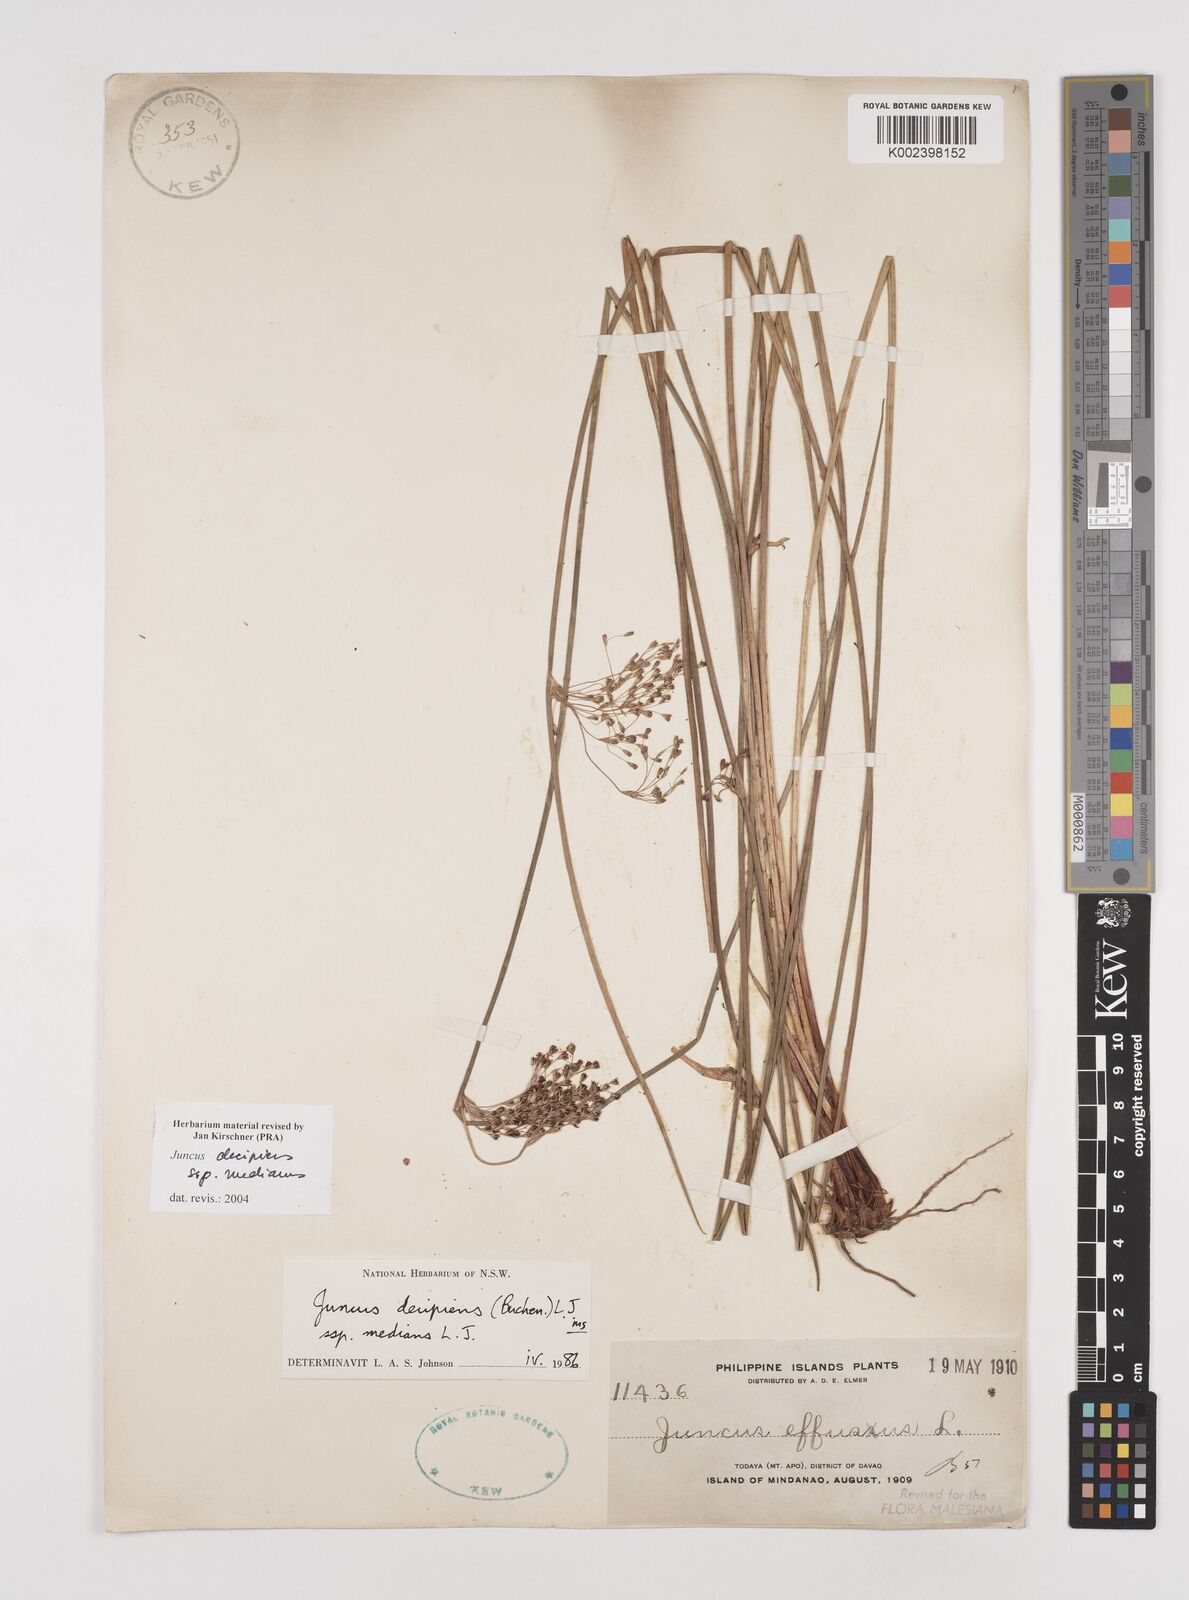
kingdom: Plantae
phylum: Tracheophyta
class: Liliopsida
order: Poales
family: Juncaceae
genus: Juncus
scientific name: Juncus decipiens
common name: Lamp rush
